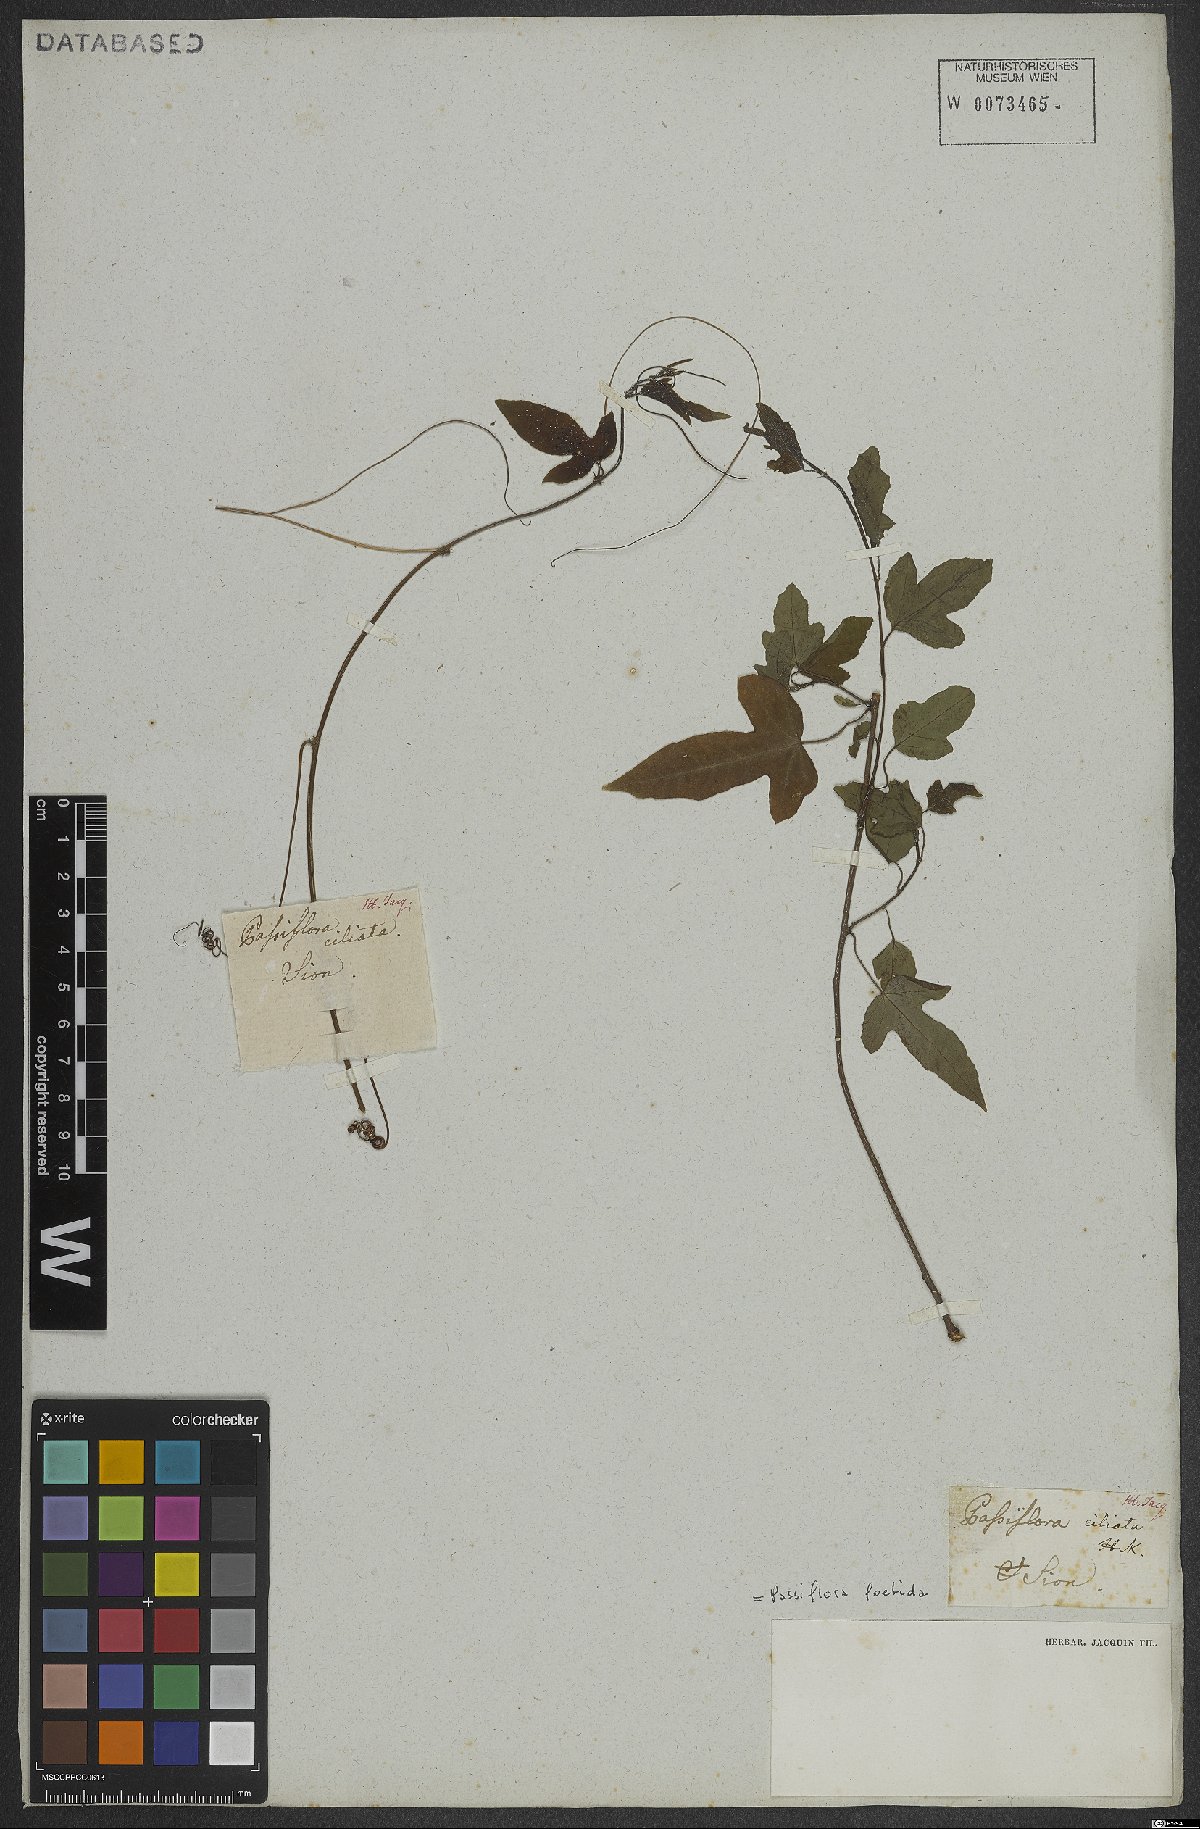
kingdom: Plantae
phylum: Tracheophyta
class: Magnoliopsida
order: Malpighiales
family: Passifloraceae
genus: Passiflora
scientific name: Passiflora foetida
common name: Fetid passionflower
